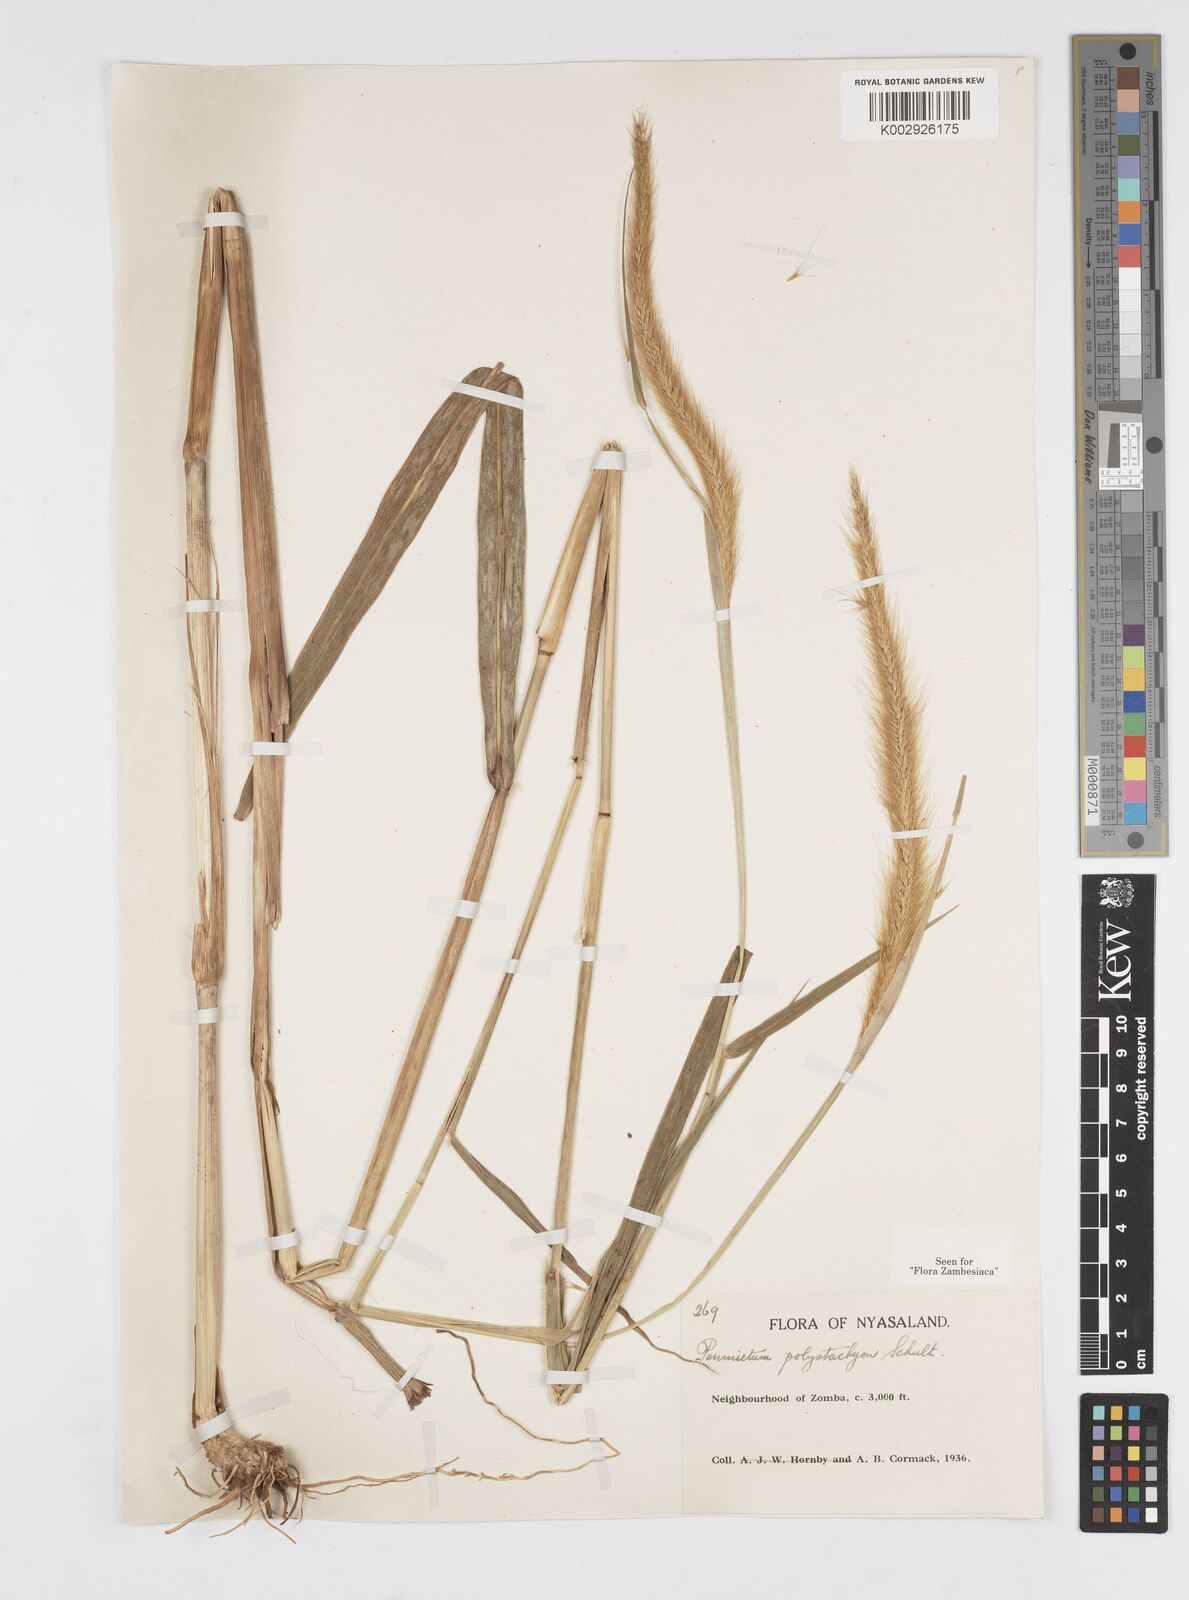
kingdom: Plantae
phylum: Tracheophyta
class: Liliopsida
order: Poales
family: Poaceae
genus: Setaria
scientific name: Setaria parviflora
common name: Knotroot bristle-grass
